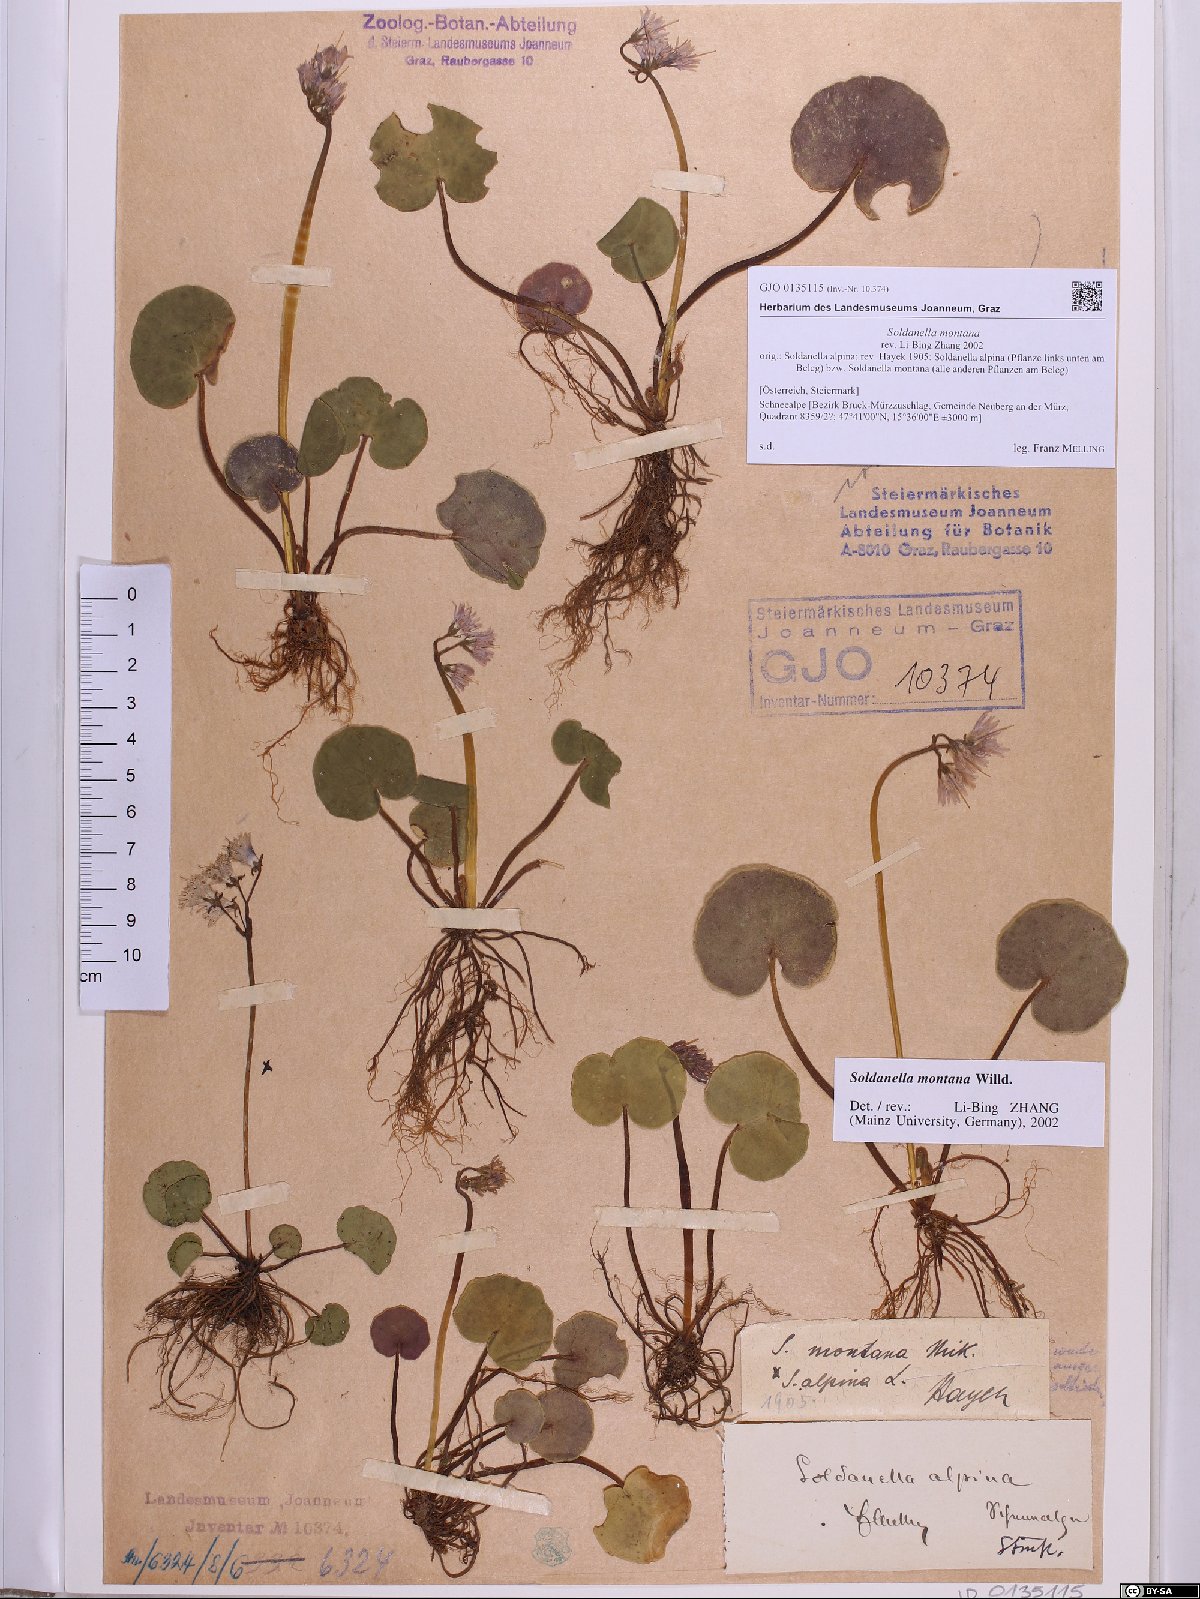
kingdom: Plantae
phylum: Tracheophyta
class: Magnoliopsida
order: Ericales
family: Primulaceae
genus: Soldanella
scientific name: Soldanella montana
